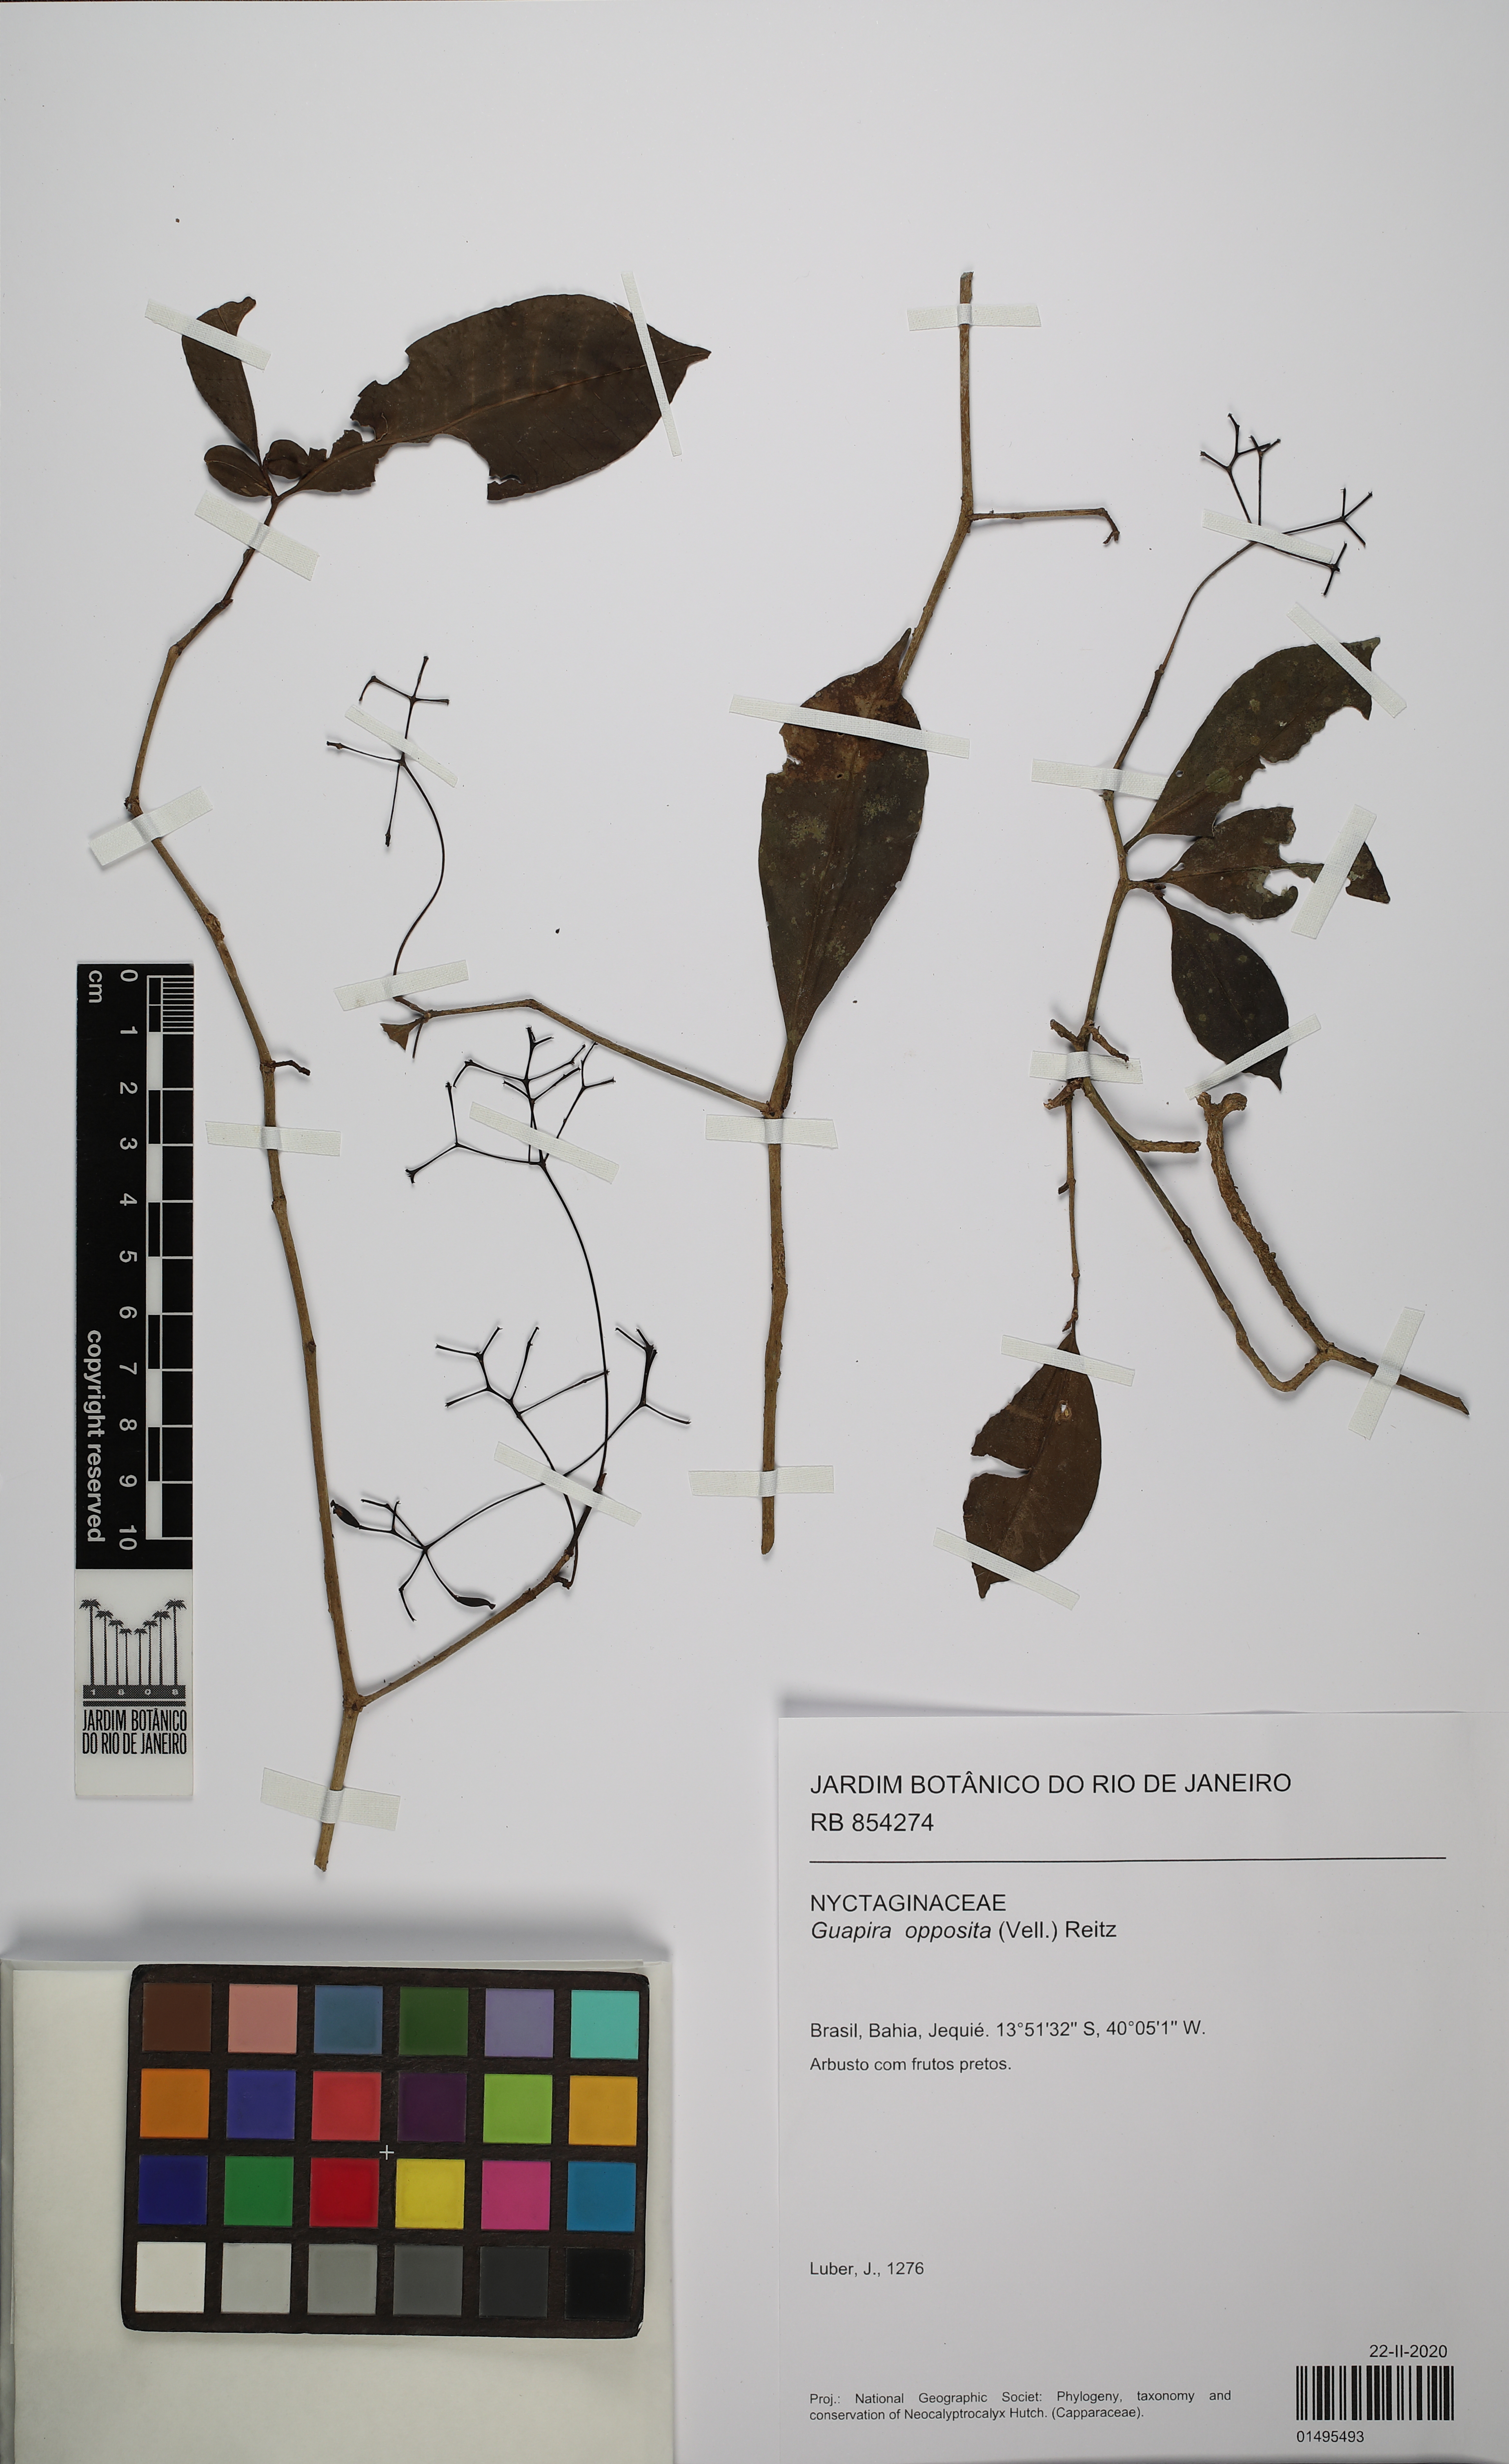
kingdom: Plantae
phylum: Tracheophyta
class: Magnoliopsida
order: Caryophyllales
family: Nyctaginaceae
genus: Guapira
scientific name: Guapira opposita
